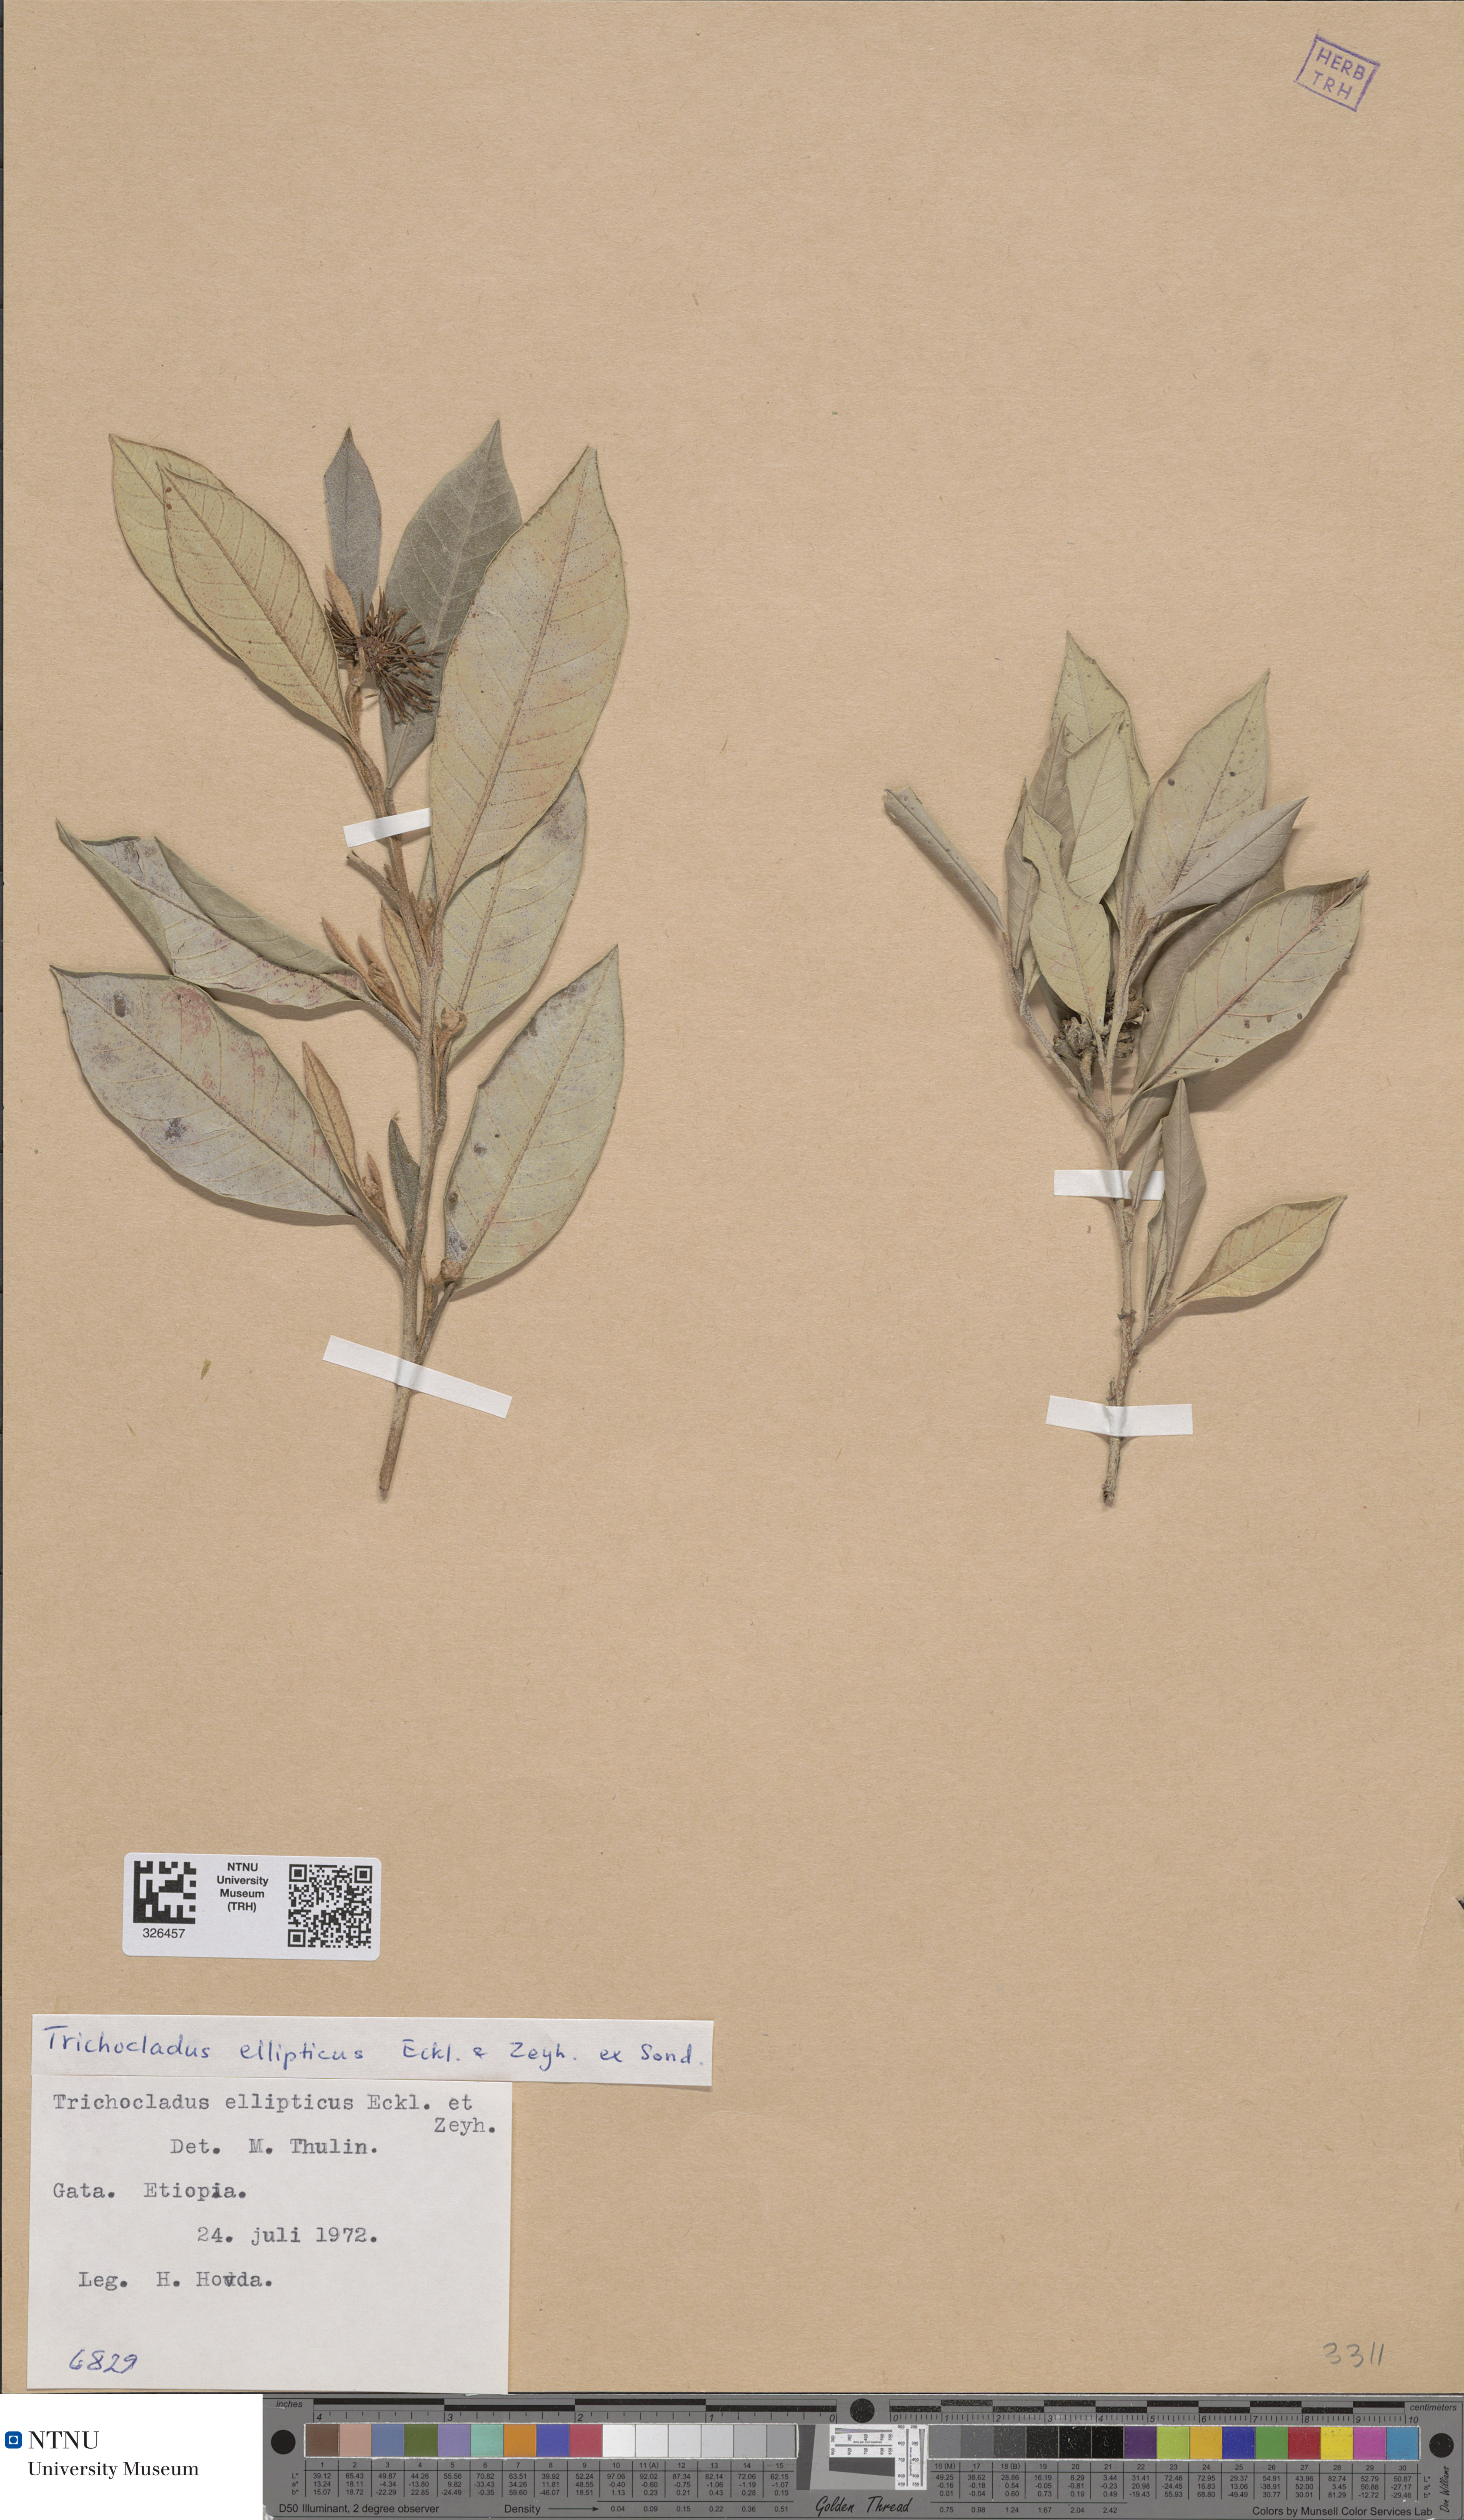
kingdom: Plantae
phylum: Tracheophyta
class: Magnoliopsida
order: Saxifragales
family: Hamamelidaceae
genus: Trichocladus
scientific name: Trichocladus ellipticus
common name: White witch-hazel
